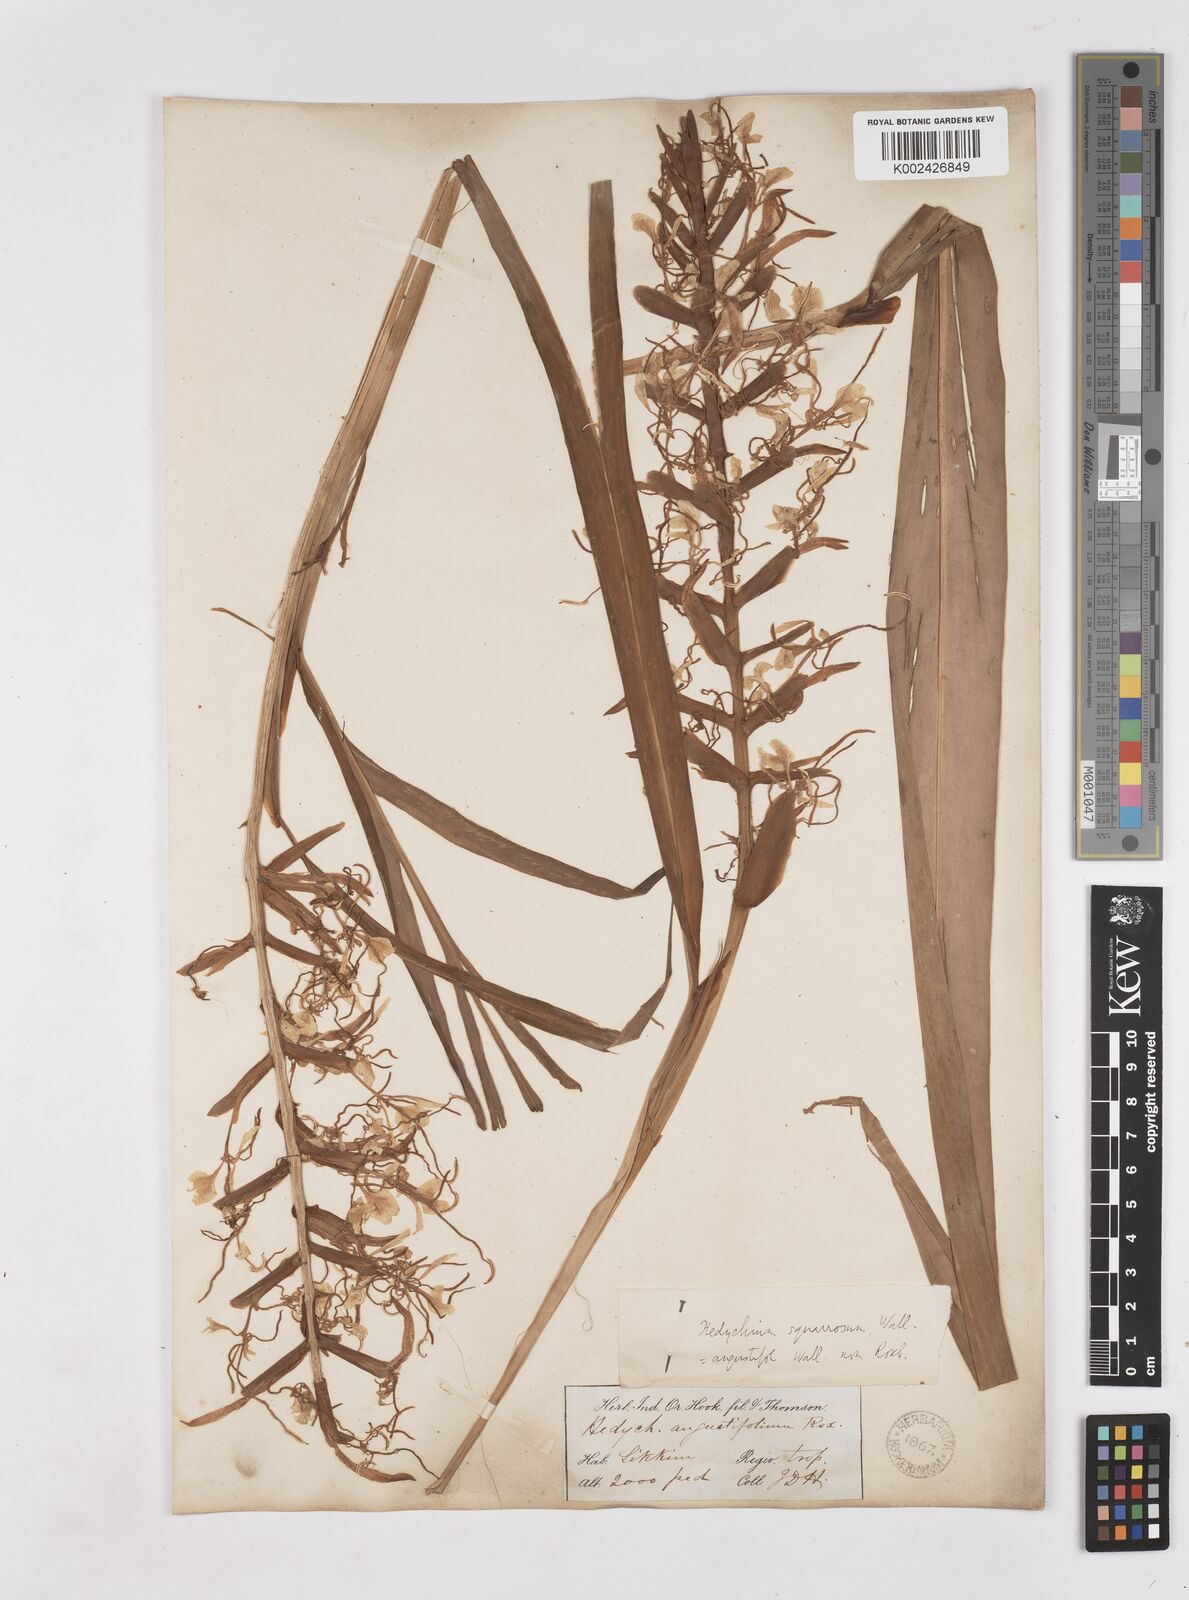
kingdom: Plantae
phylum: Tracheophyta
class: Liliopsida
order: Zingiberales
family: Zingiberaceae
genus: Hedychium
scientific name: Hedychium coccineum
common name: Red ginger-lily
